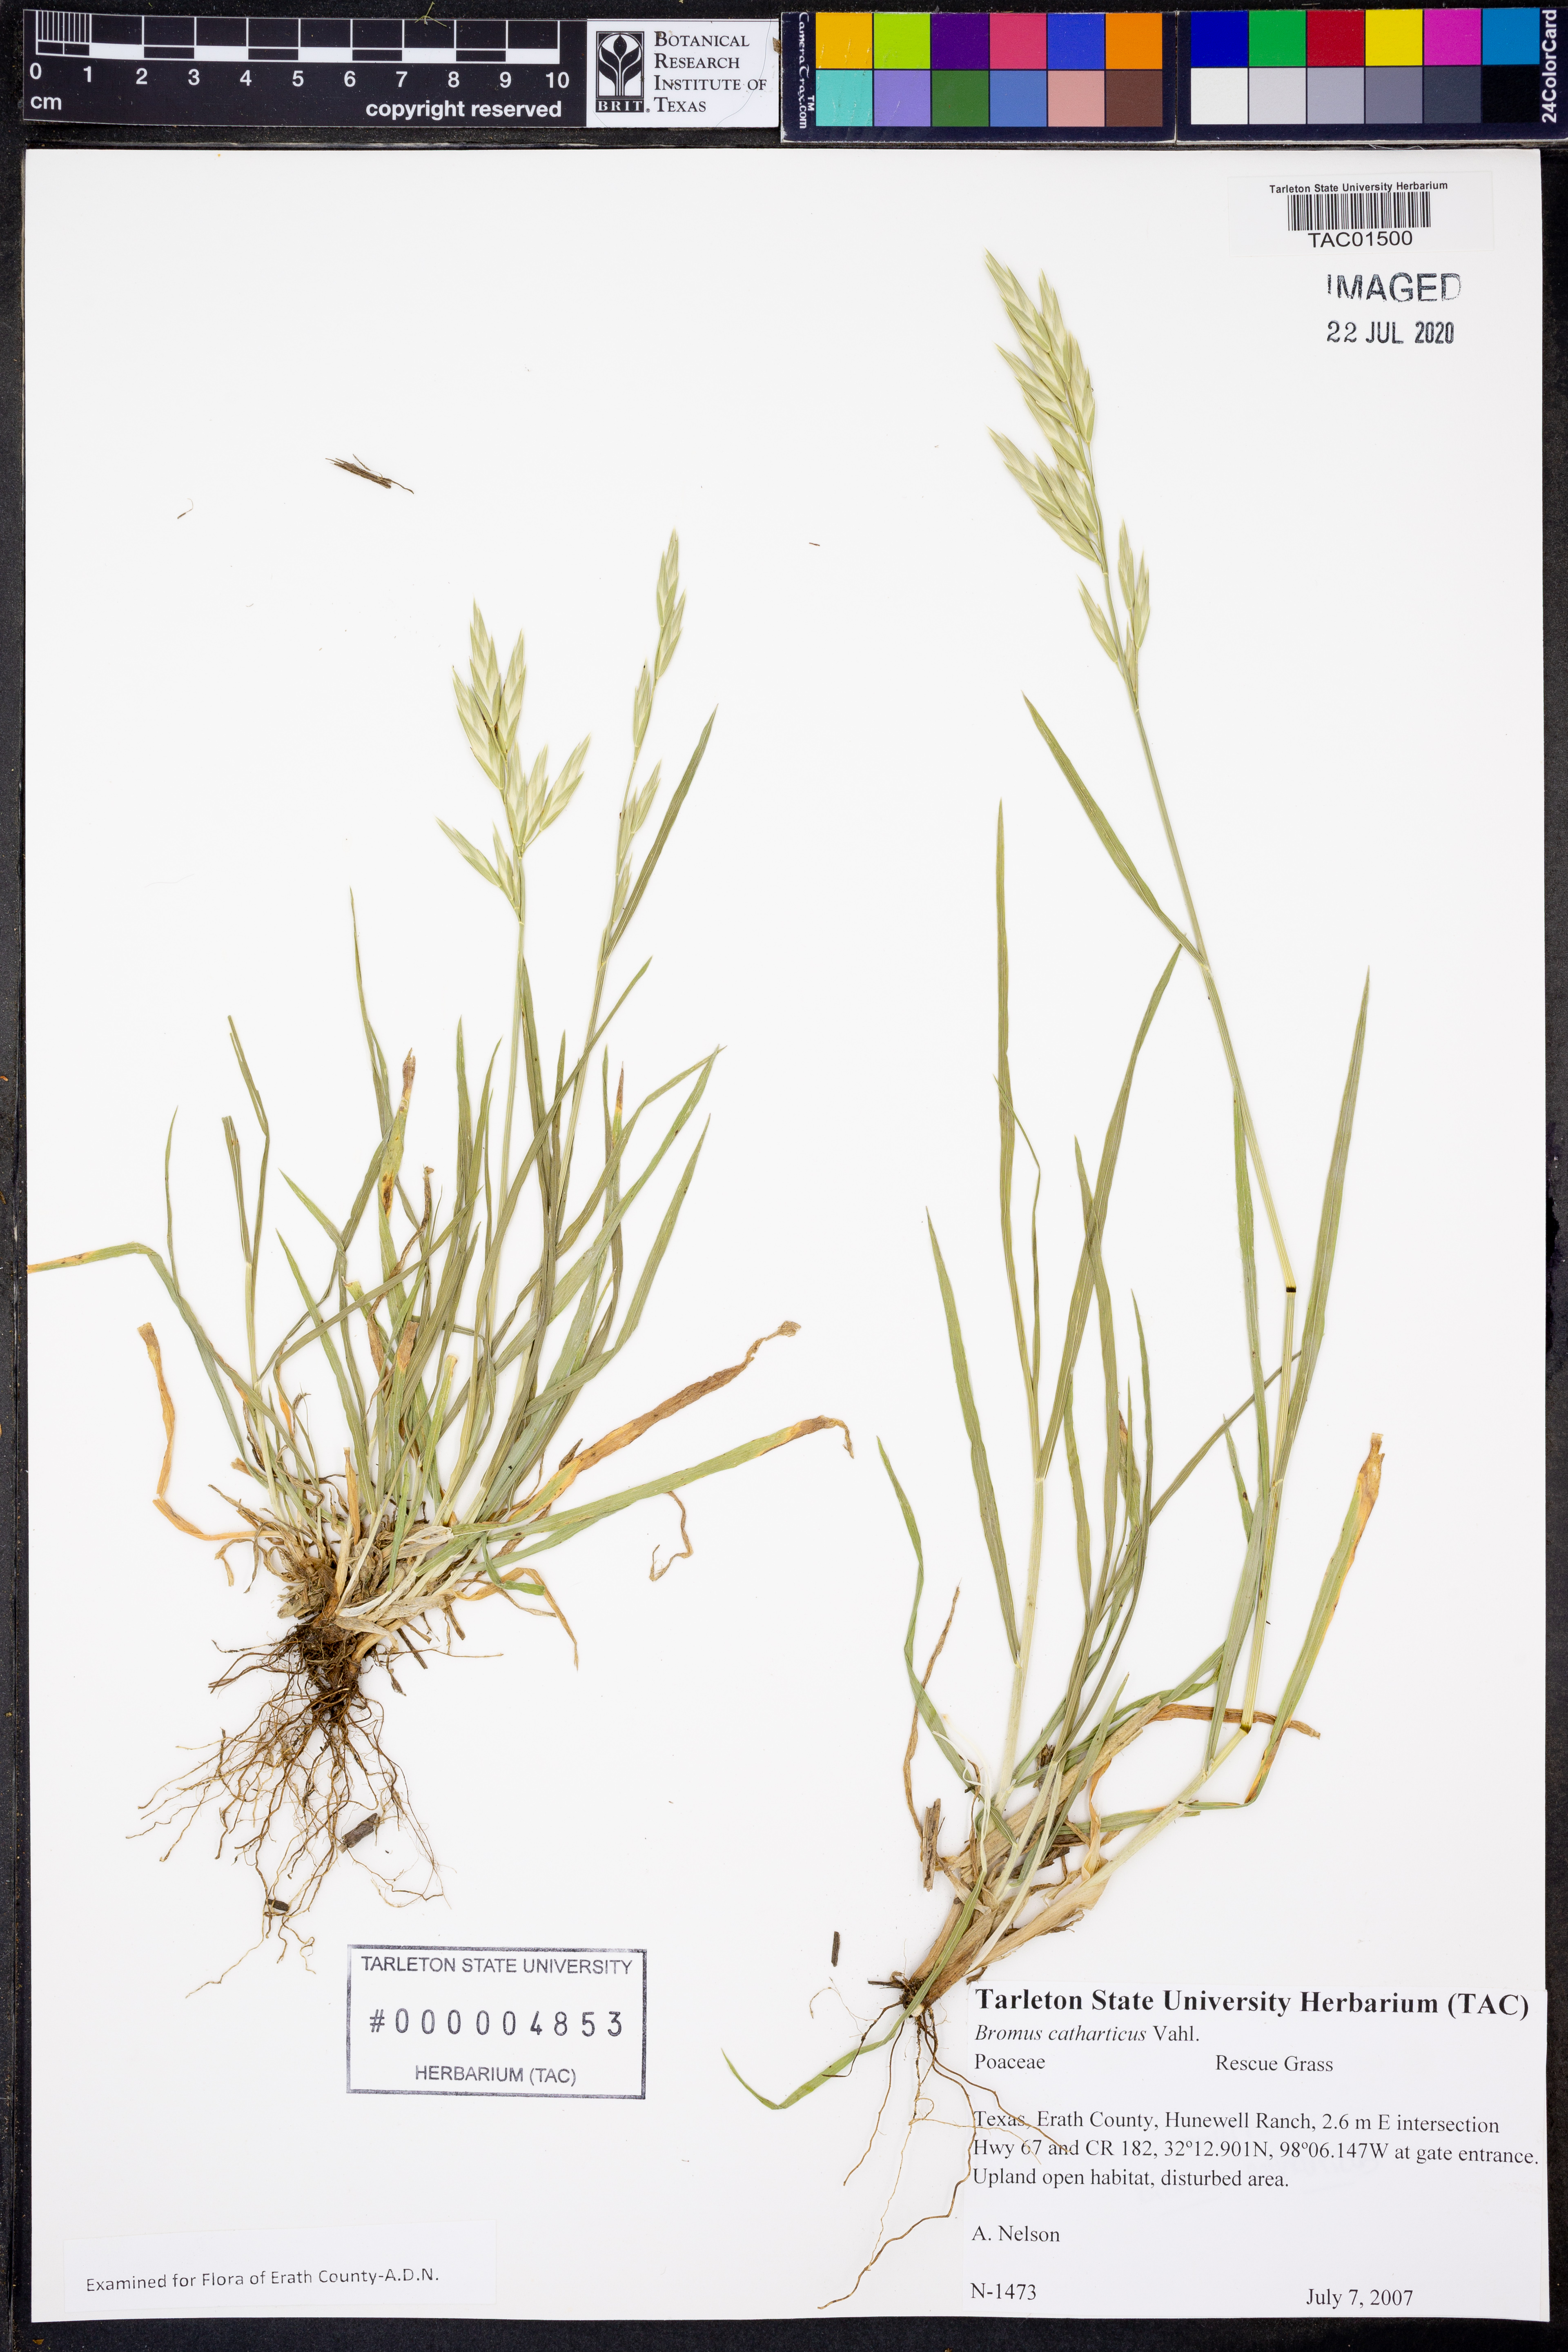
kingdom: Plantae
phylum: Tracheophyta
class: Liliopsida
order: Poales
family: Poaceae
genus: Bromus
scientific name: Bromus catharticus
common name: Rescuegrass
